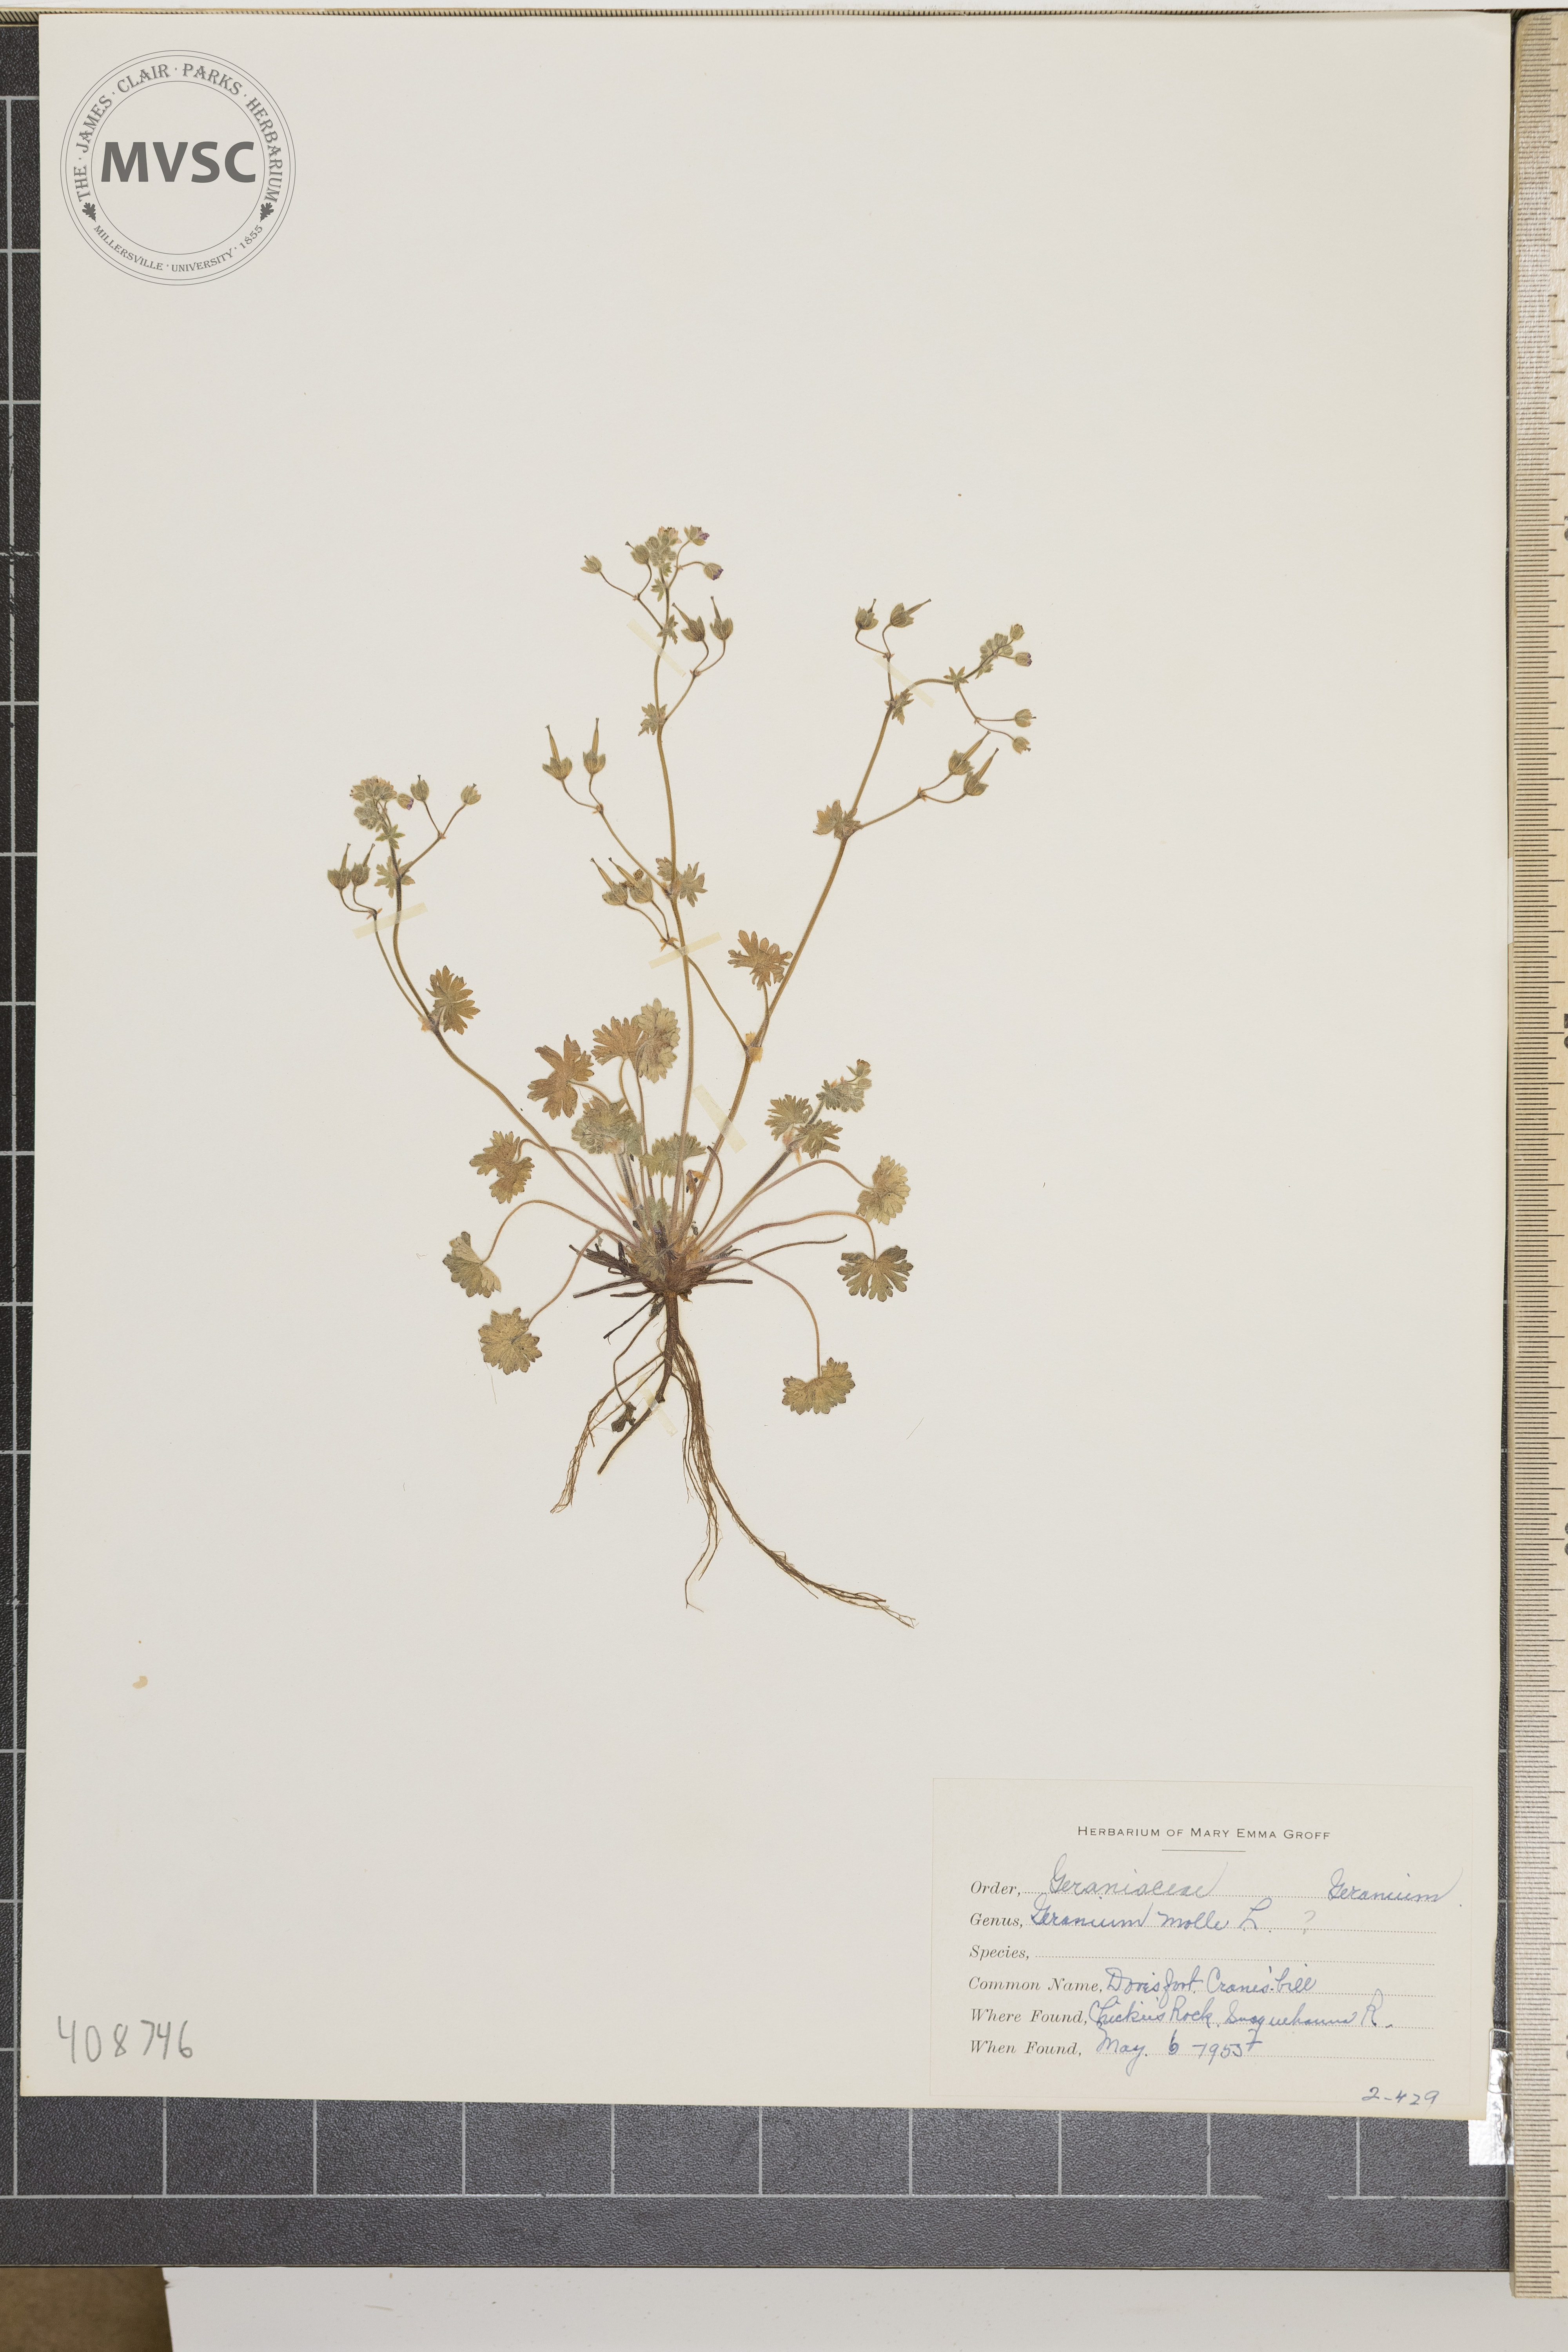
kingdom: Plantae
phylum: Tracheophyta
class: Magnoliopsida
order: Geraniales
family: Geraniaceae
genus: Geranium
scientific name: Geranium molle
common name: Dove's-foot crane's-bill
